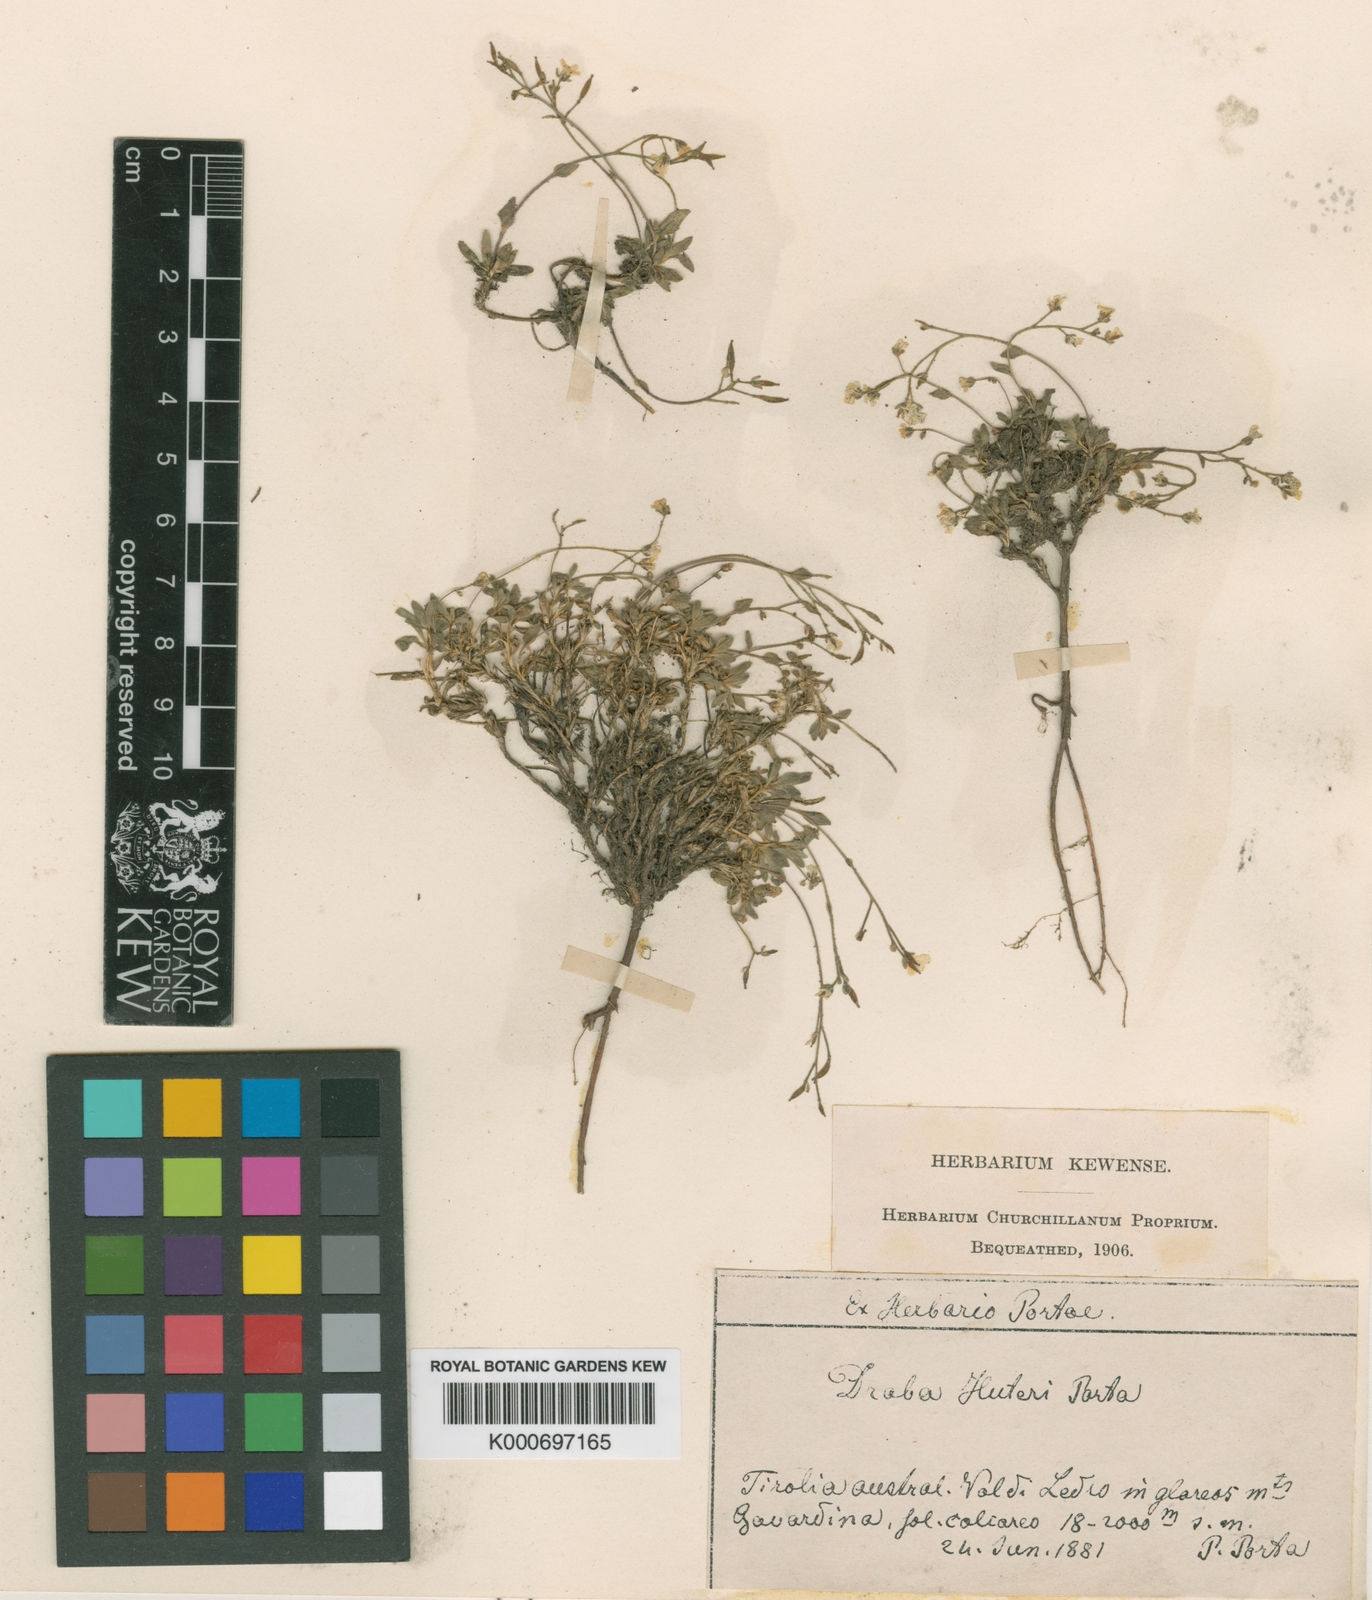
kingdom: Plantae
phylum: Tracheophyta
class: Magnoliopsida
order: Brassicales
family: Brassicaceae
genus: Draba
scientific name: Draba dubia
